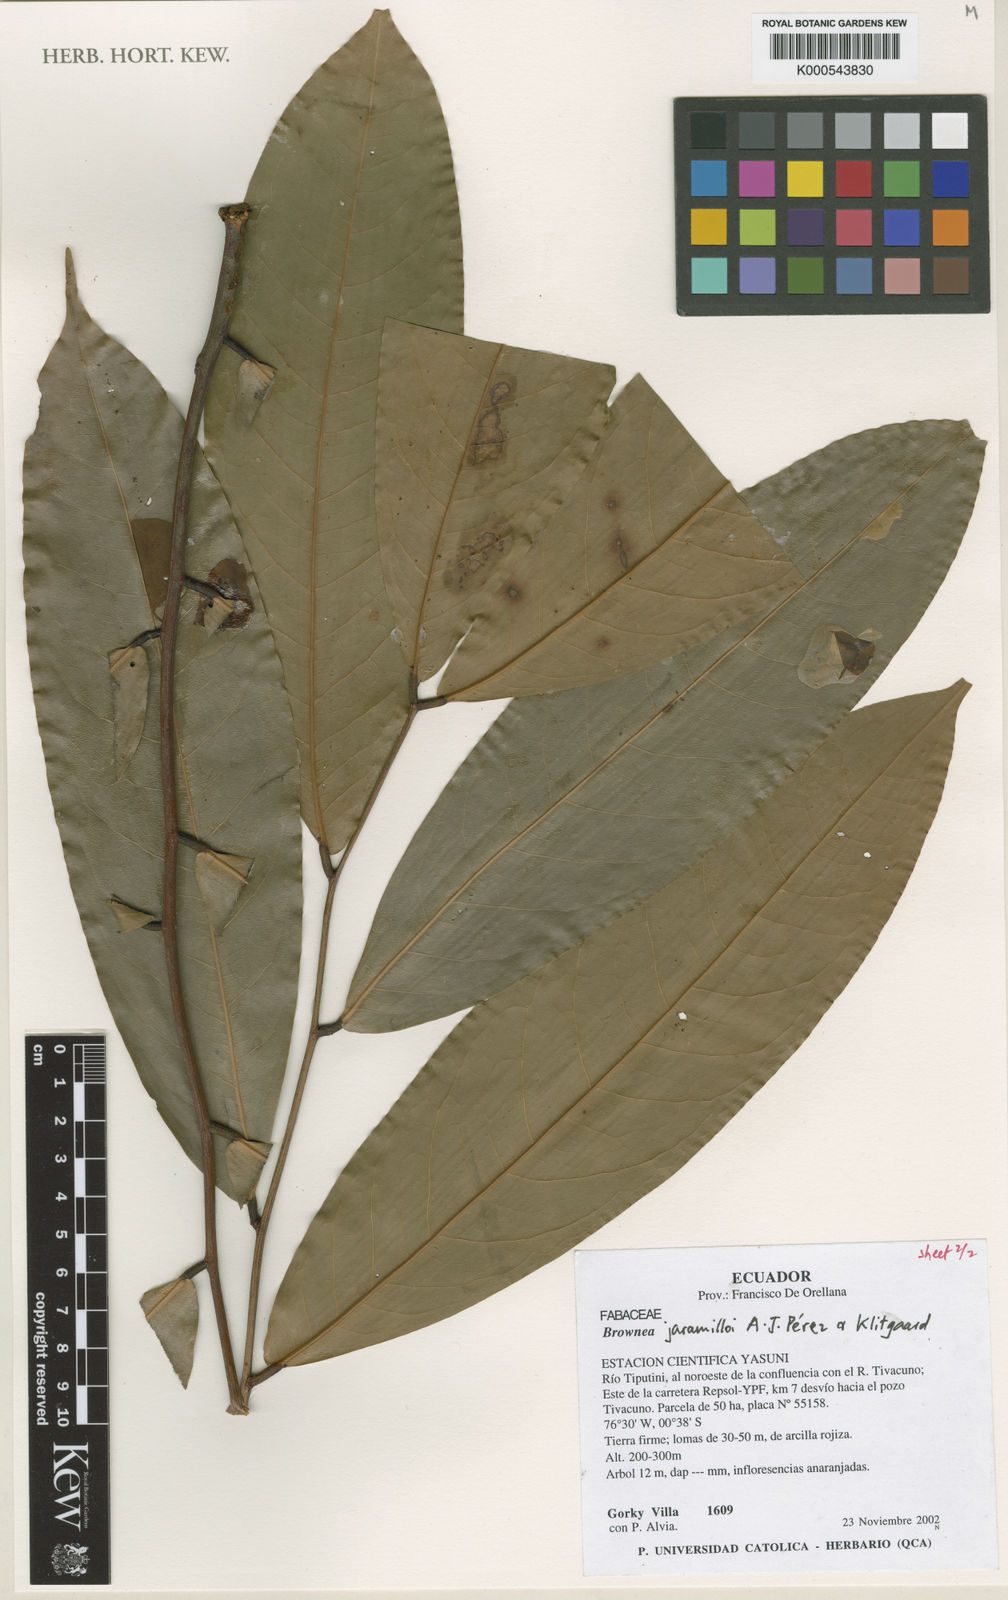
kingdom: Plantae
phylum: Tracheophyta
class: Magnoliopsida
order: Fabales
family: Fabaceae
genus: Brownea
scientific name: Brownea
